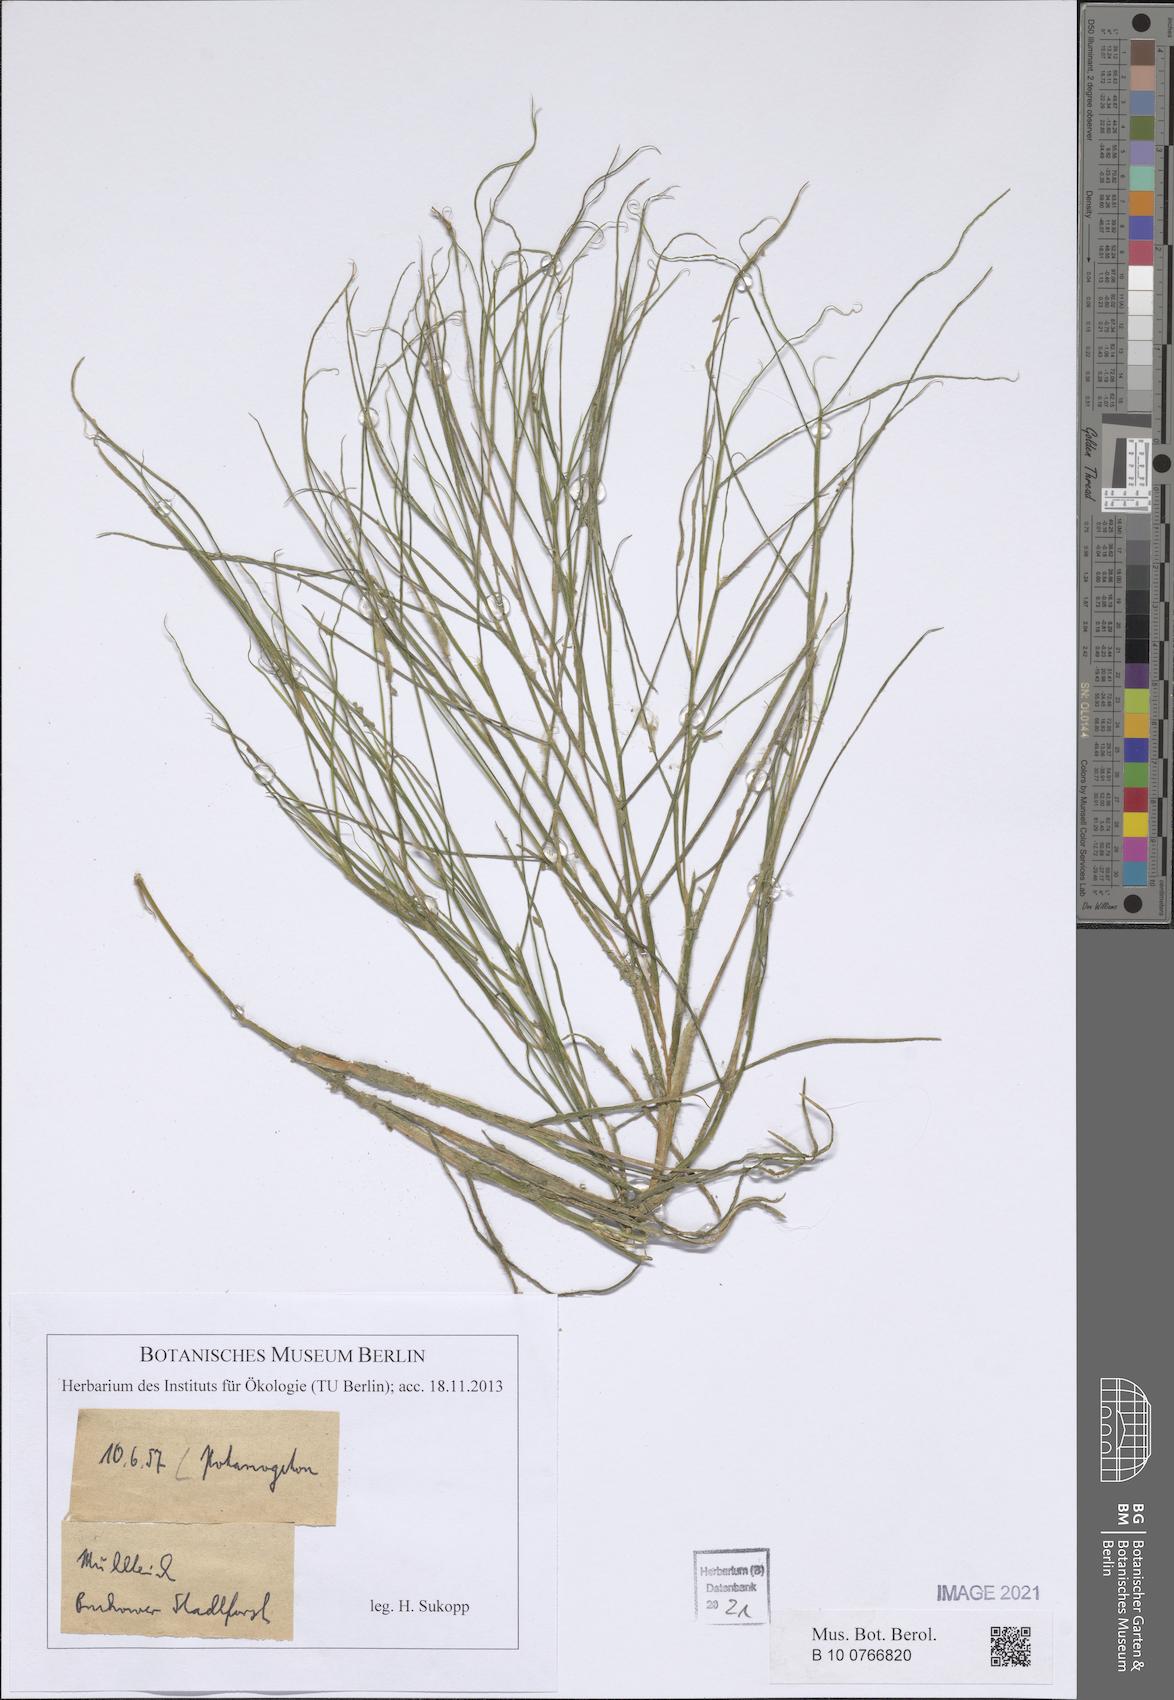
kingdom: Plantae
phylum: Tracheophyta
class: Liliopsida
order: Alismatales
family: Potamogetonaceae
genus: Potamogeton
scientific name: Potamogeton
